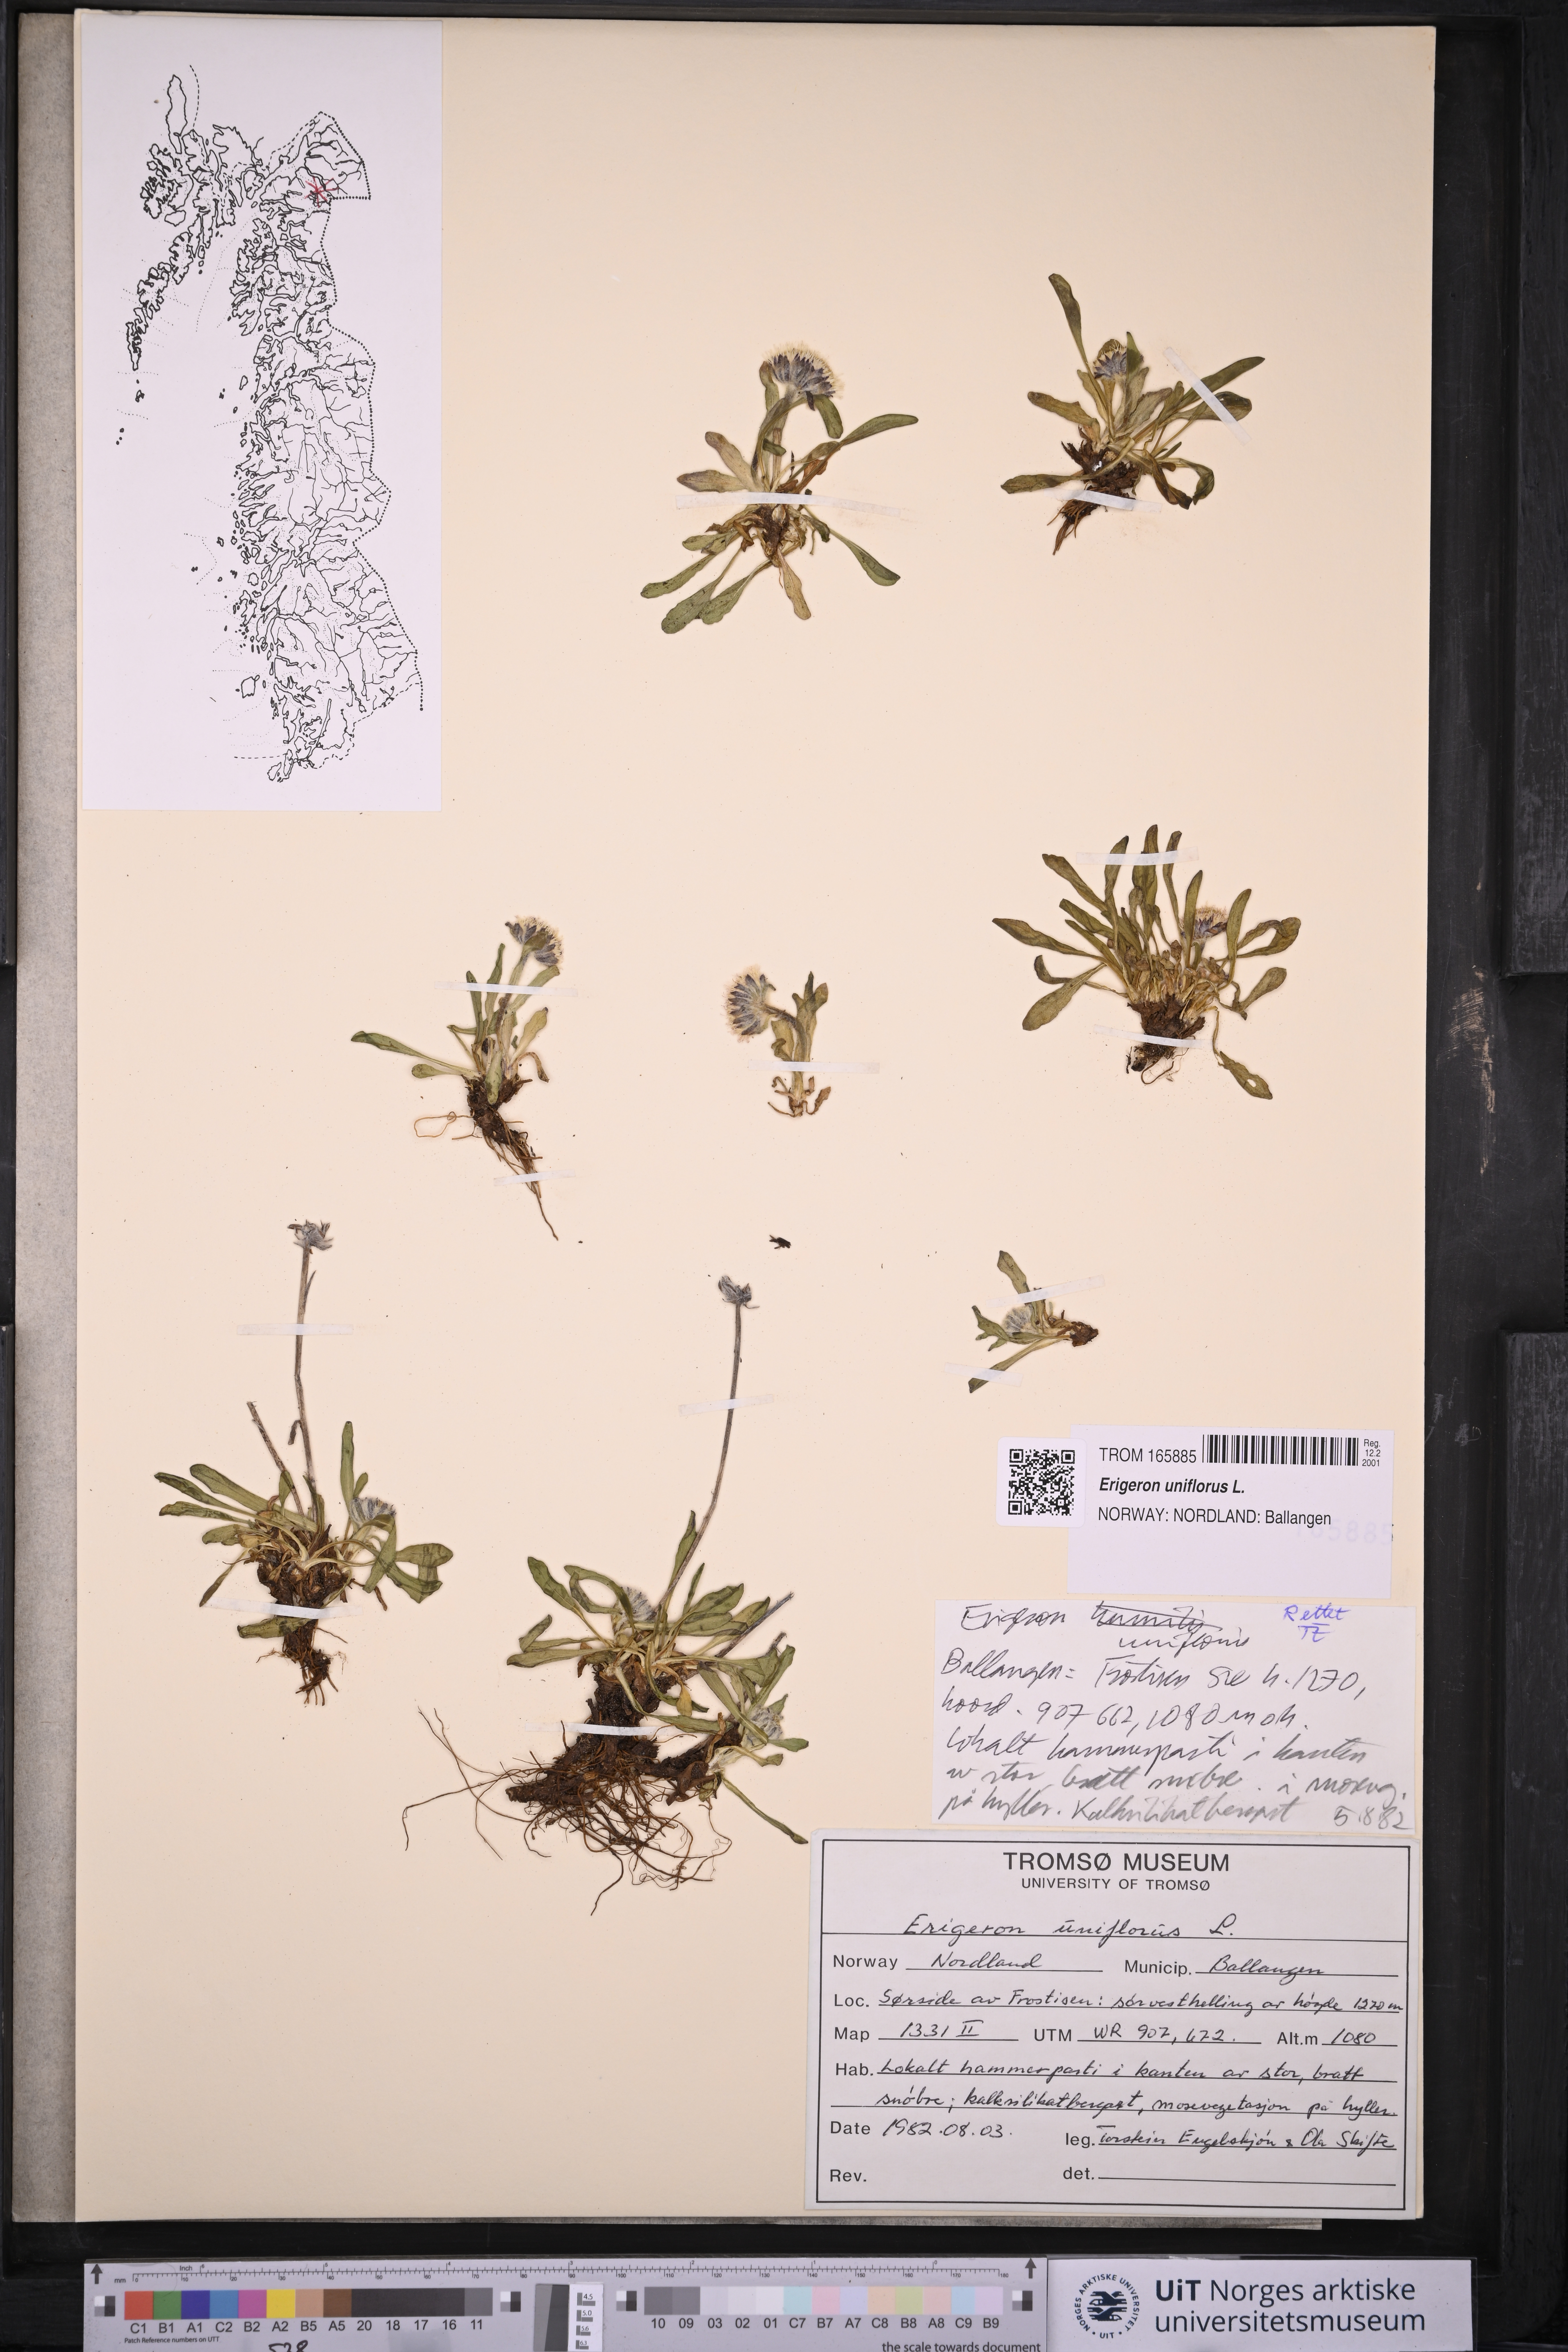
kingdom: Plantae
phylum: Tracheophyta
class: Magnoliopsida
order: Asterales
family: Asteraceae
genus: Erigeron
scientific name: Erigeron uniflorus
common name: Northern daisy
